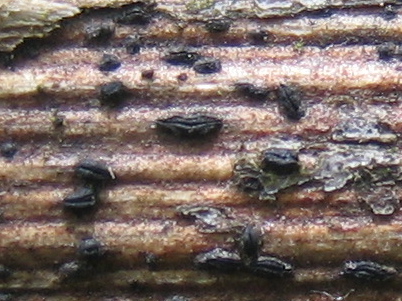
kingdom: Plantae
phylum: Bryophyta
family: Dothideomycetes
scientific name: Dothideomycetes
